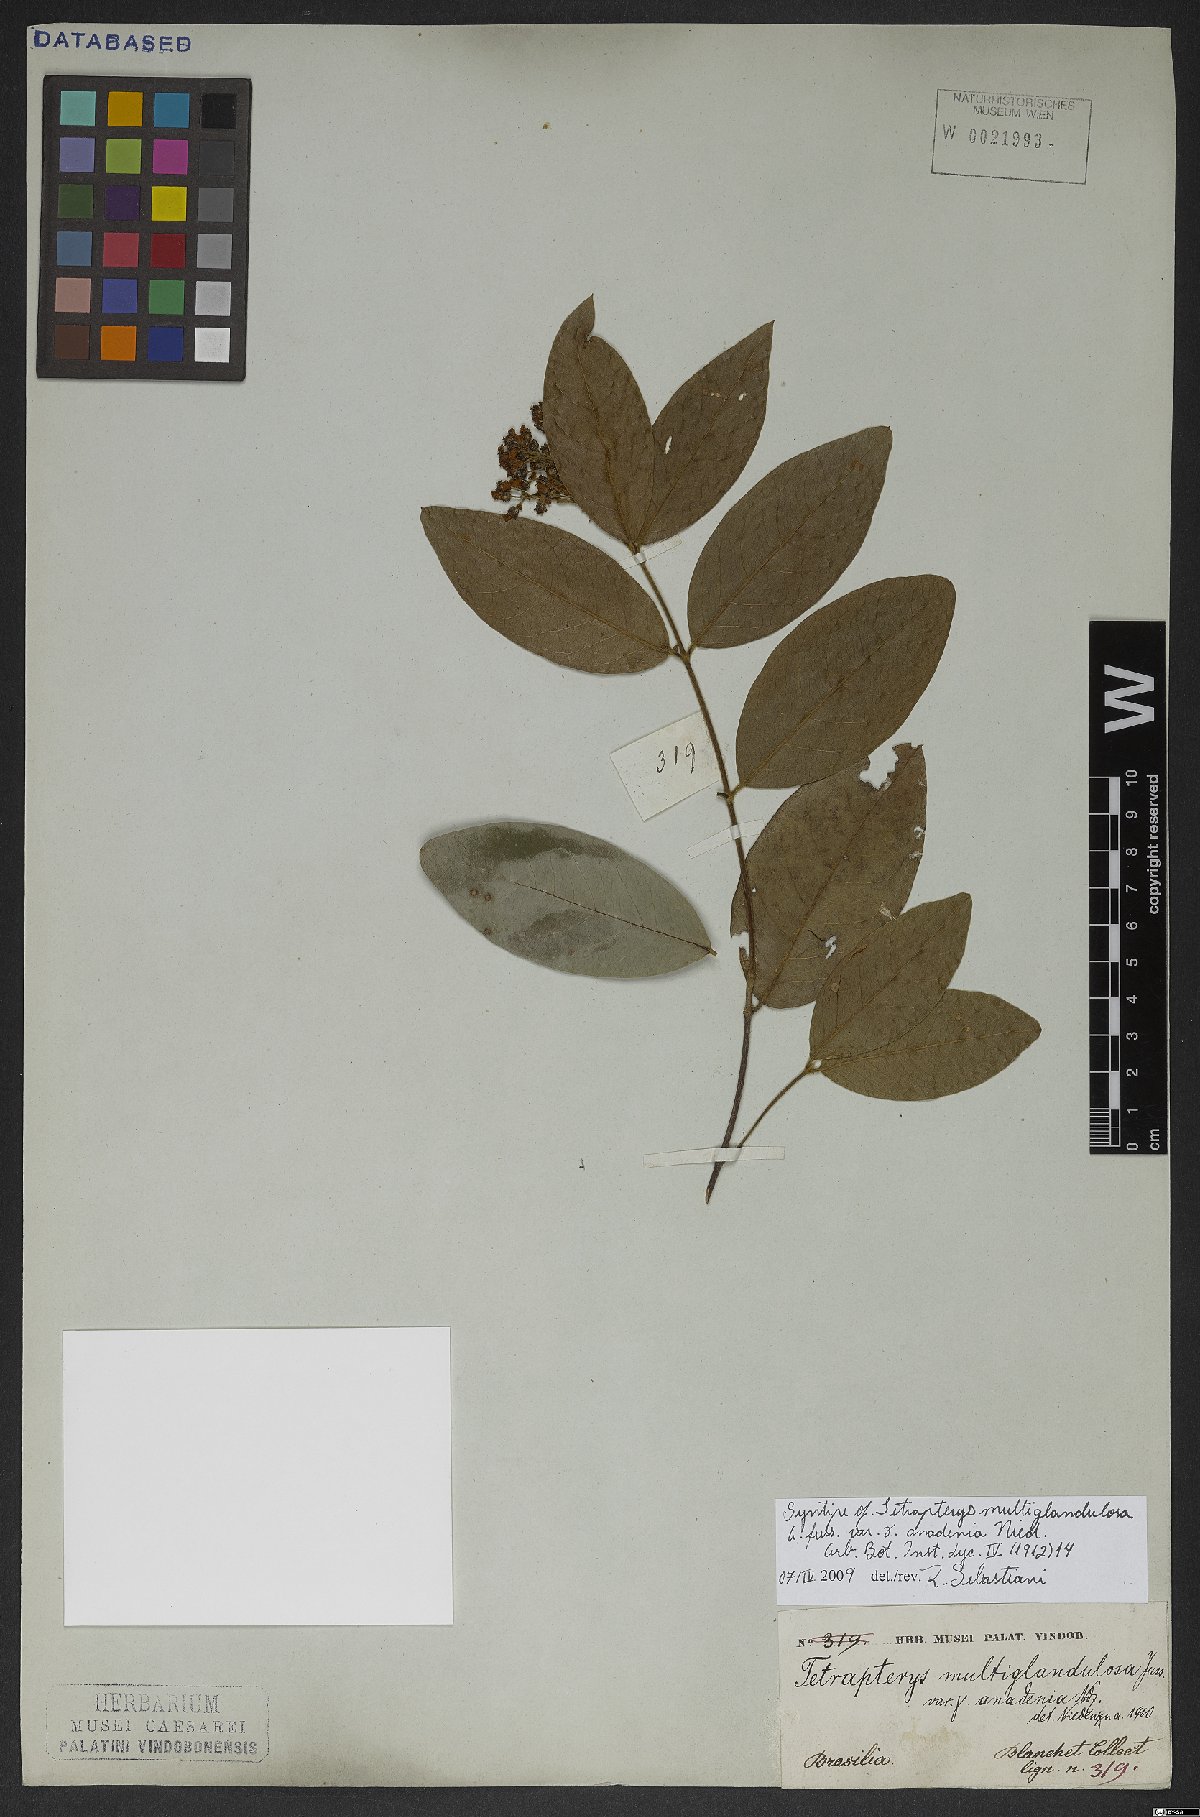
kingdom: Plantae
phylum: Tracheophyta
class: Magnoliopsida
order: Malpighiales
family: Malpighiaceae
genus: Niedenzuella
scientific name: Niedenzuella multiglandulosa
